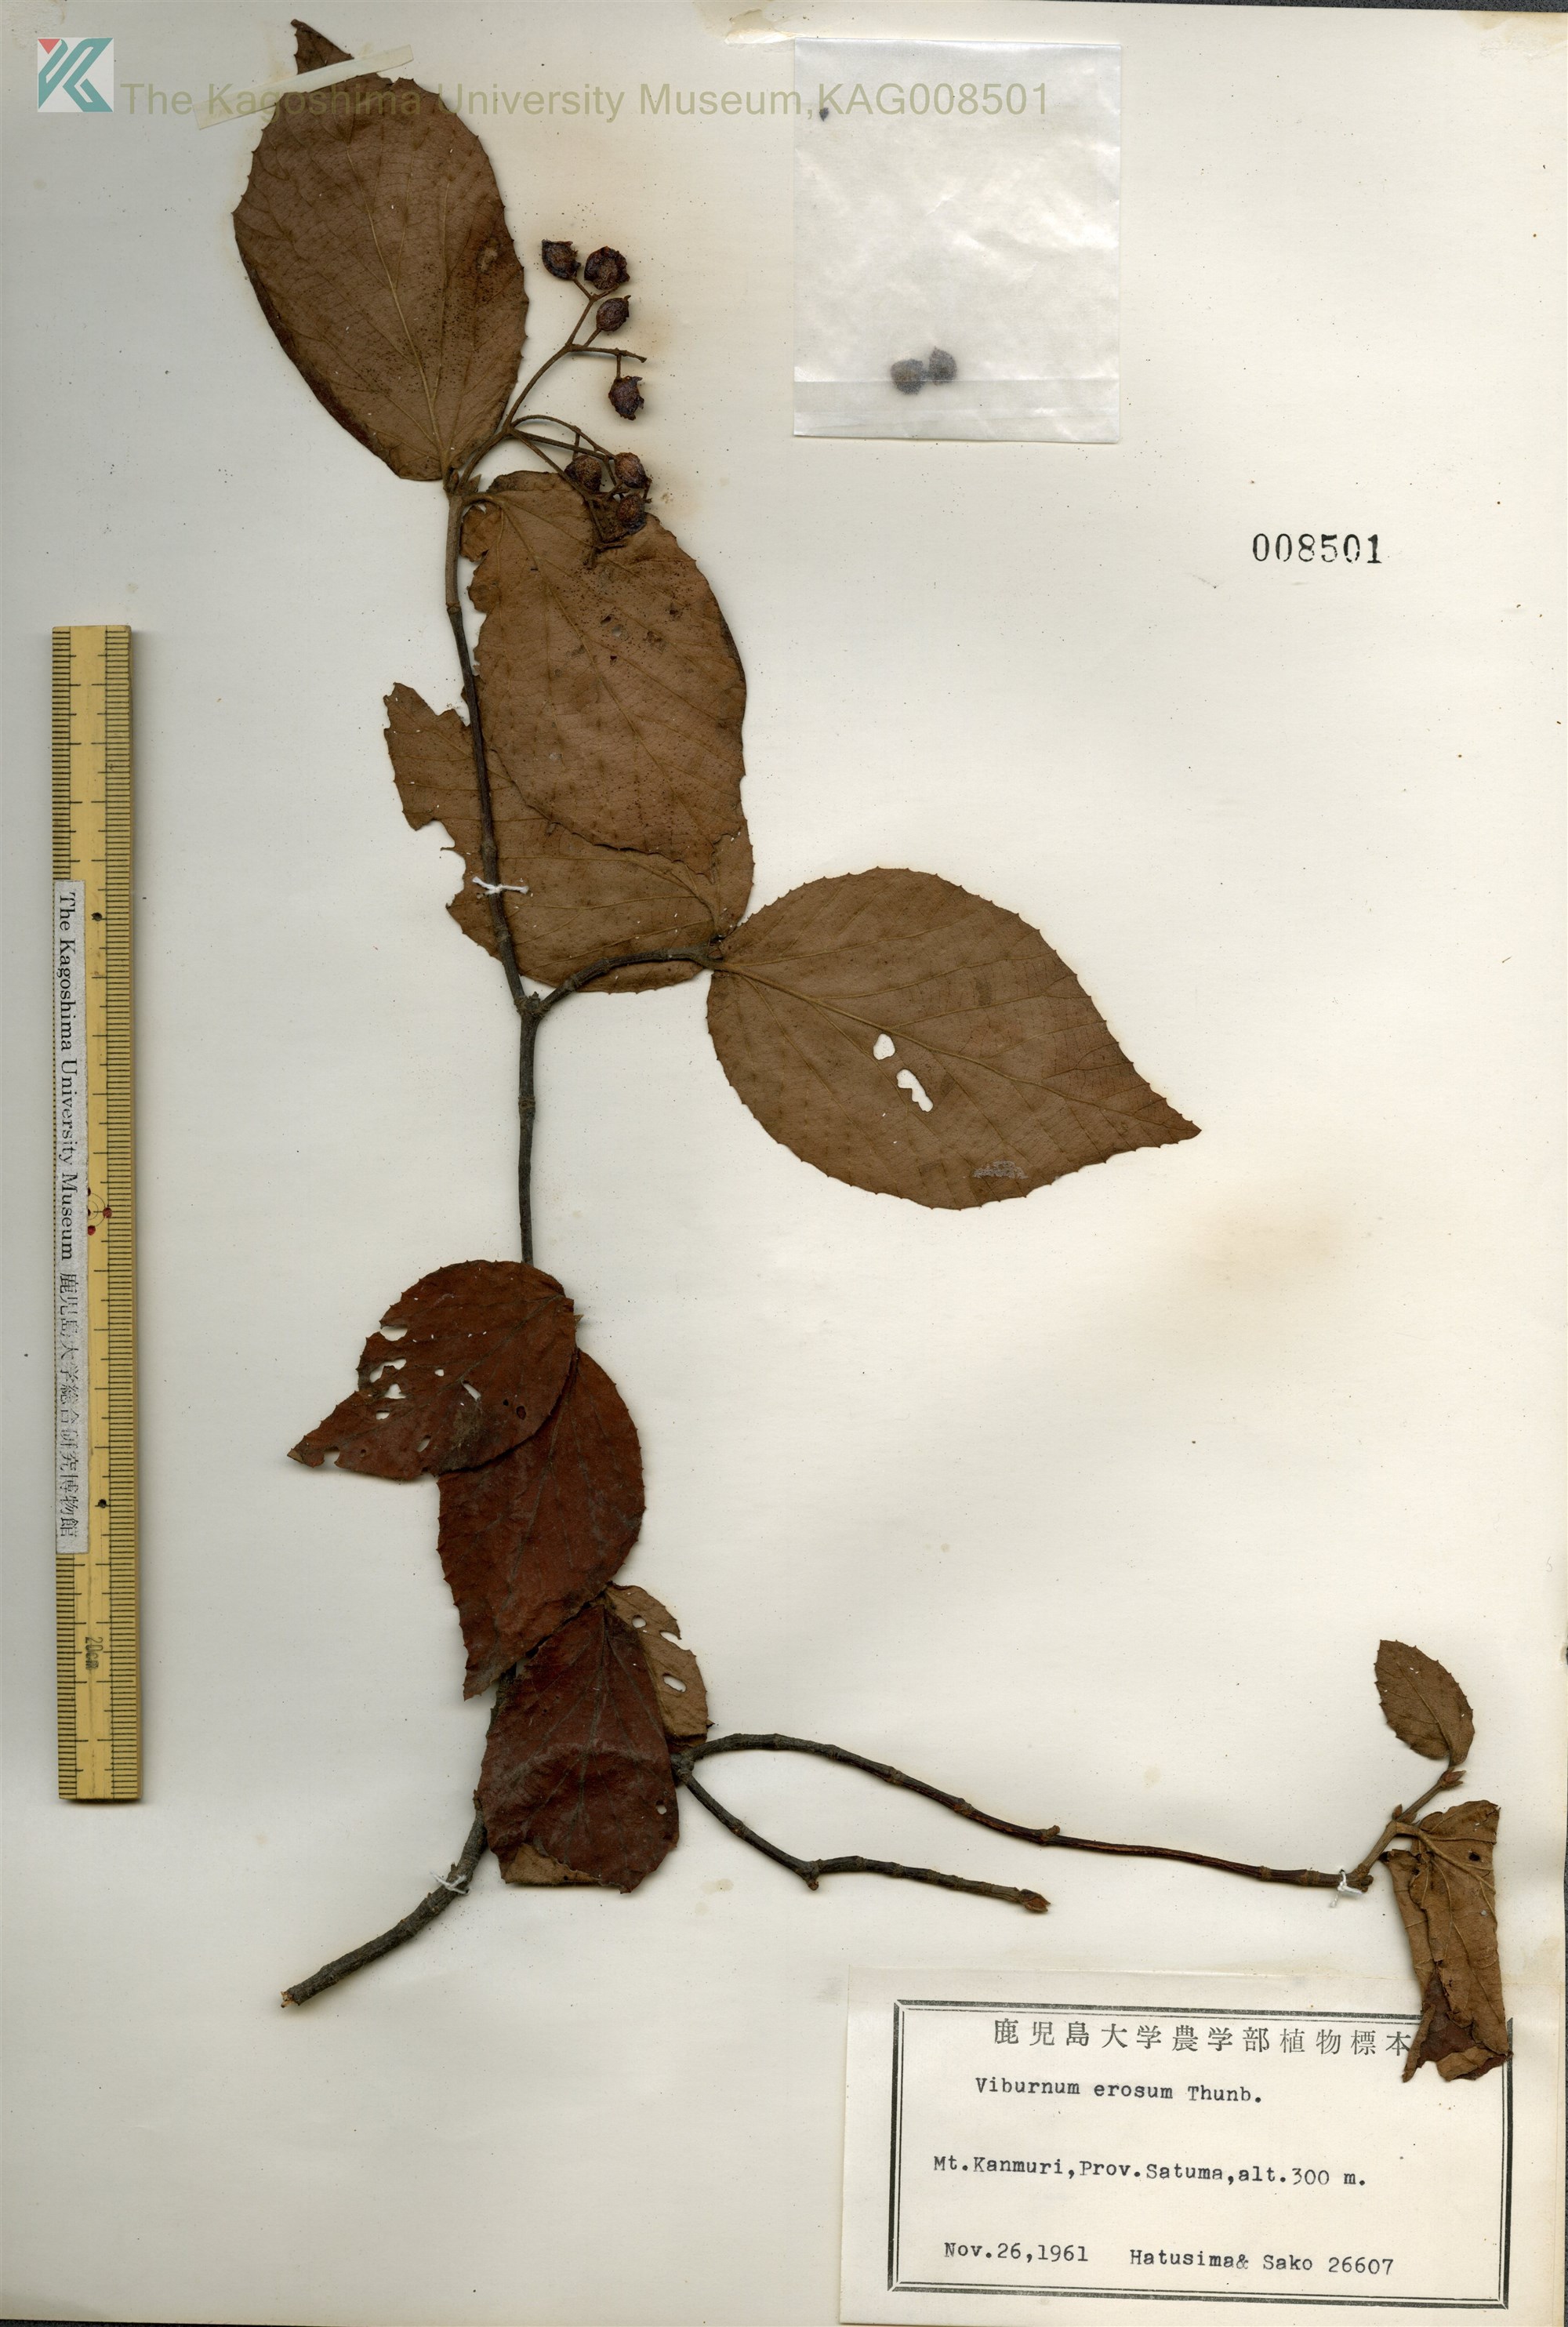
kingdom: Plantae
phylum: Tracheophyta
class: Magnoliopsida
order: Dipsacales
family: Viburnaceae
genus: Viburnum
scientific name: Viburnum erosum
